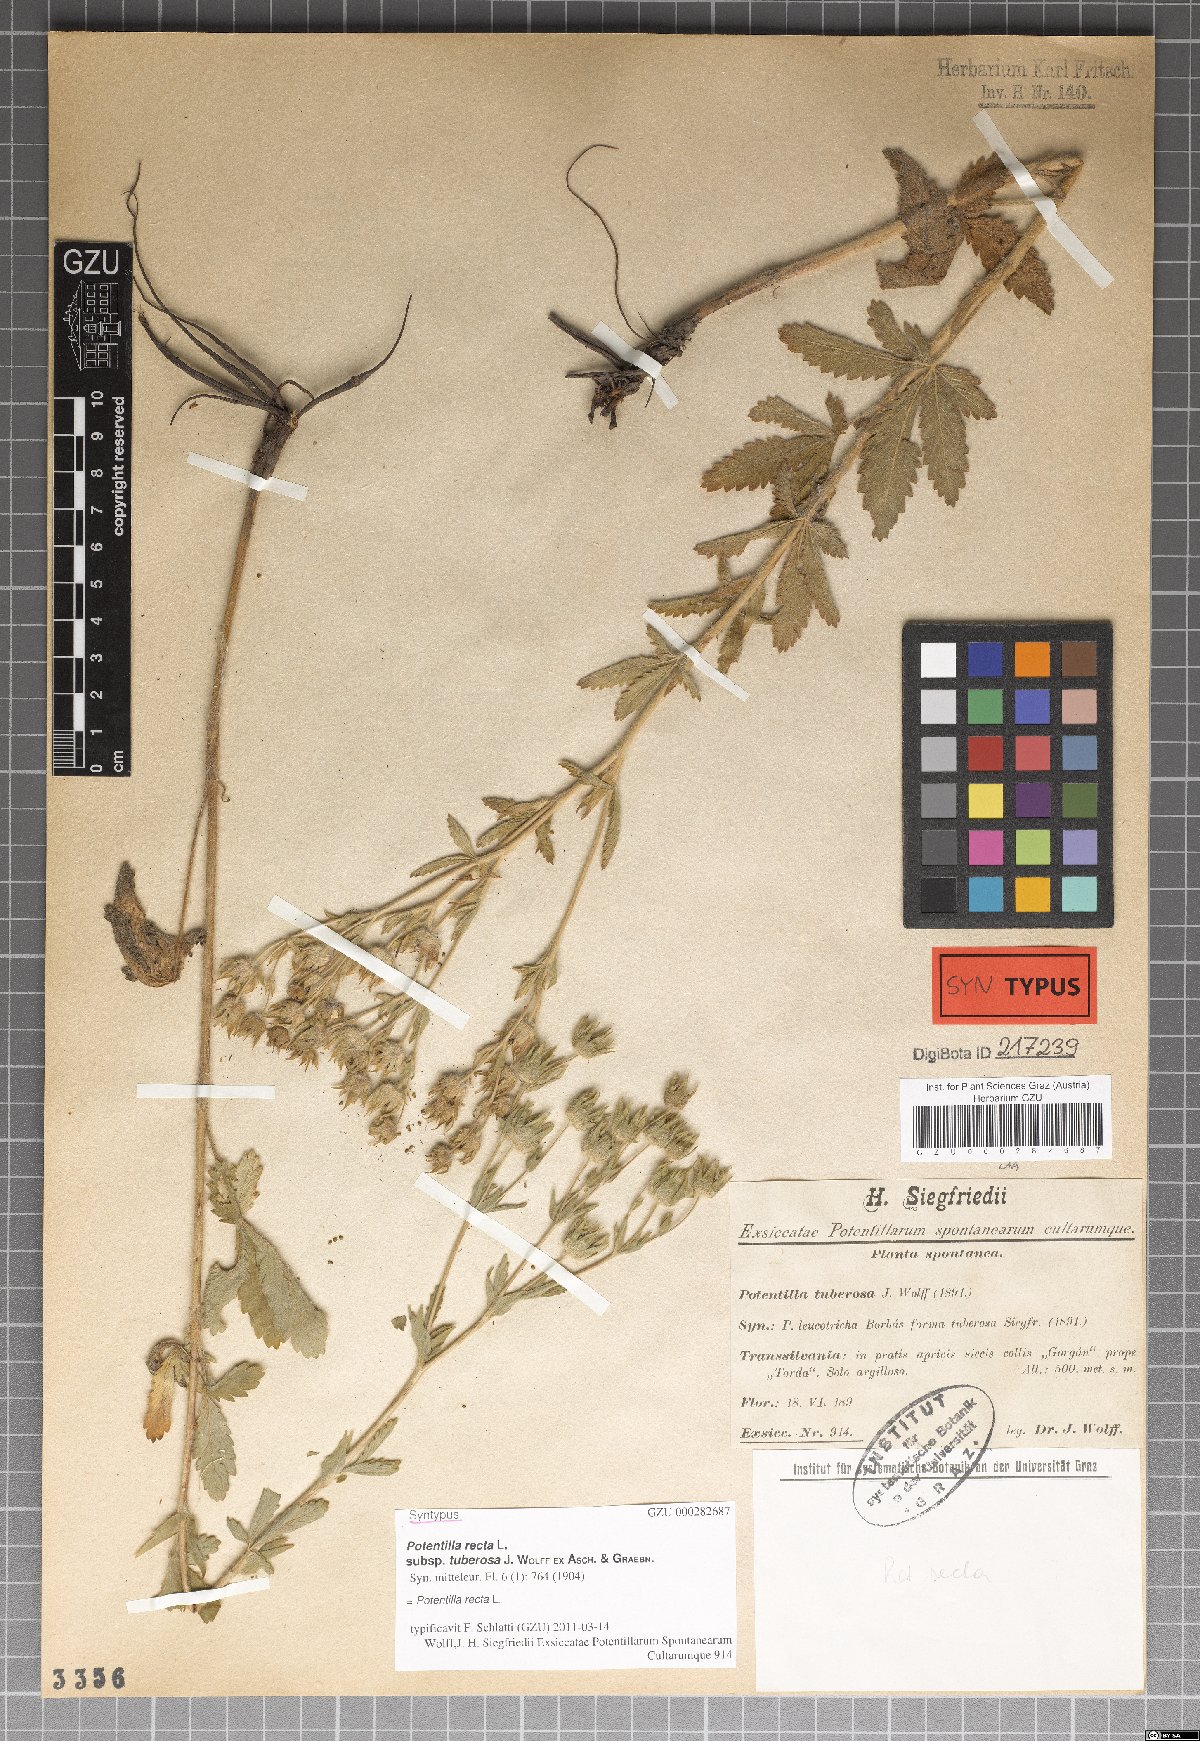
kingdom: Plantae
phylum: Tracheophyta
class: Magnoliopsida
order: Rosales
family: Rosaceae
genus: Potentilla
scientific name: Potentilla recta
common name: Sulphur cinquefoil
